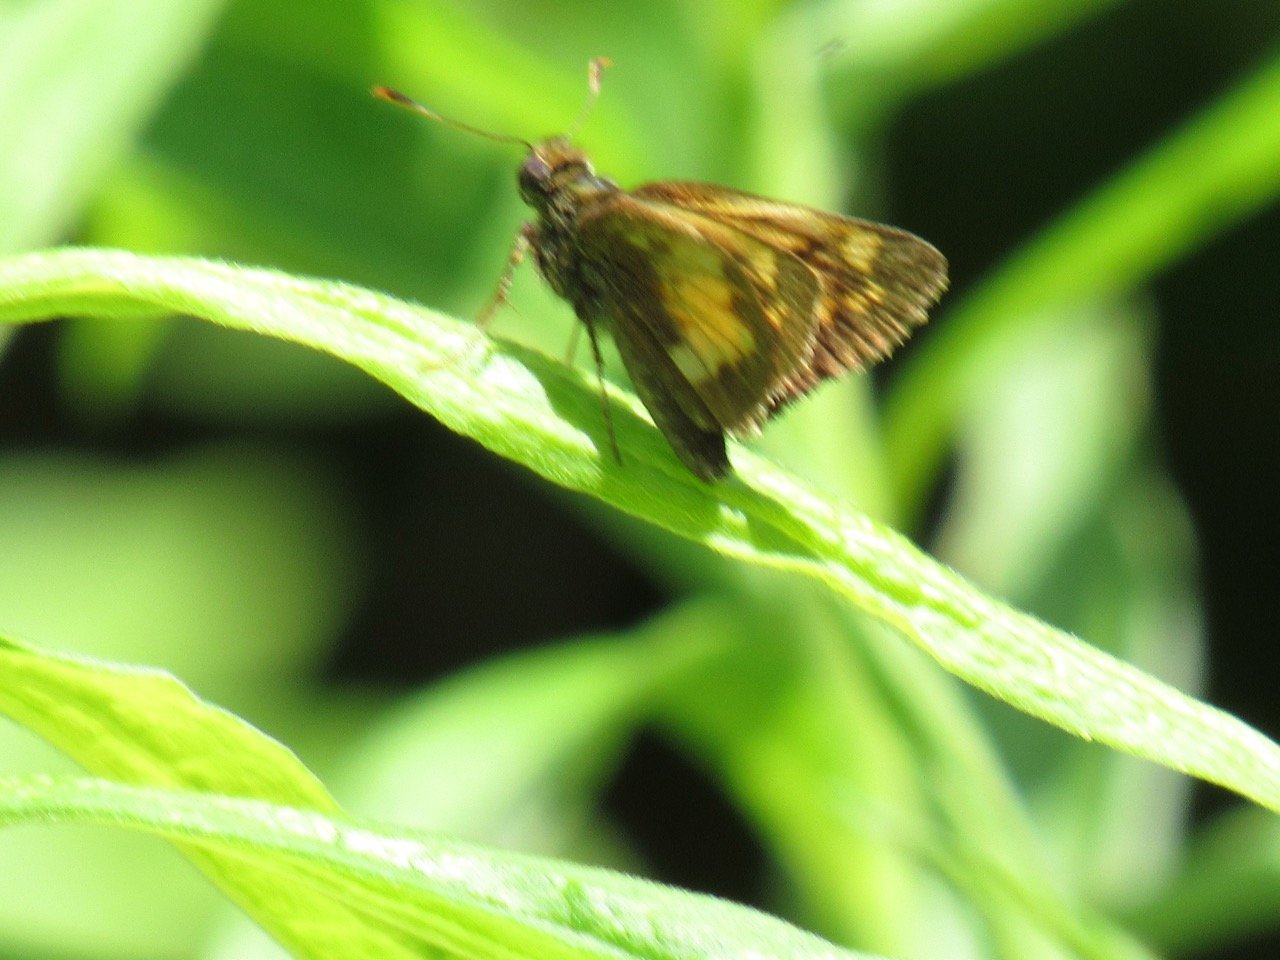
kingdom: Animalia
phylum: Arthropoda
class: Insecta
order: Lepidoptera
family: Hesperiidae
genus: Lon
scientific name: Lon hobomok
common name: Hobomok Skipper
